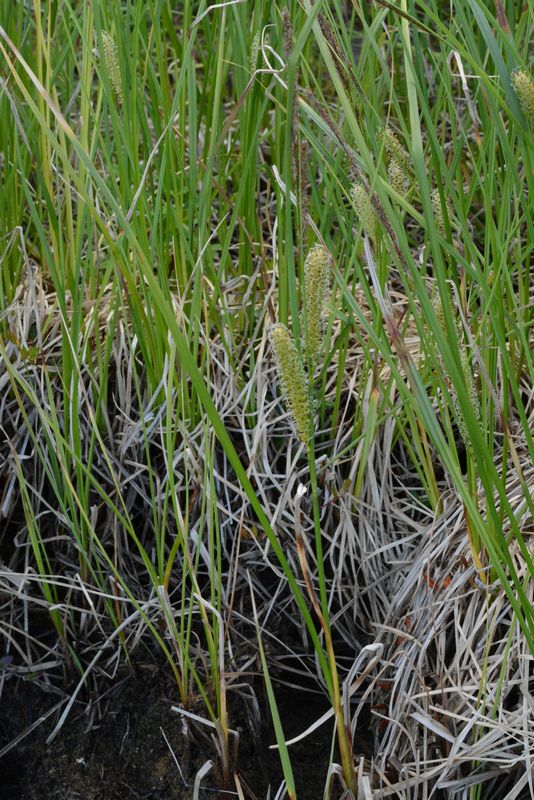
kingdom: Plantae
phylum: Tracheophyta
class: Liliopsida
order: Poales
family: Cyperaceae
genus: Carex
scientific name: Carex rostrata
